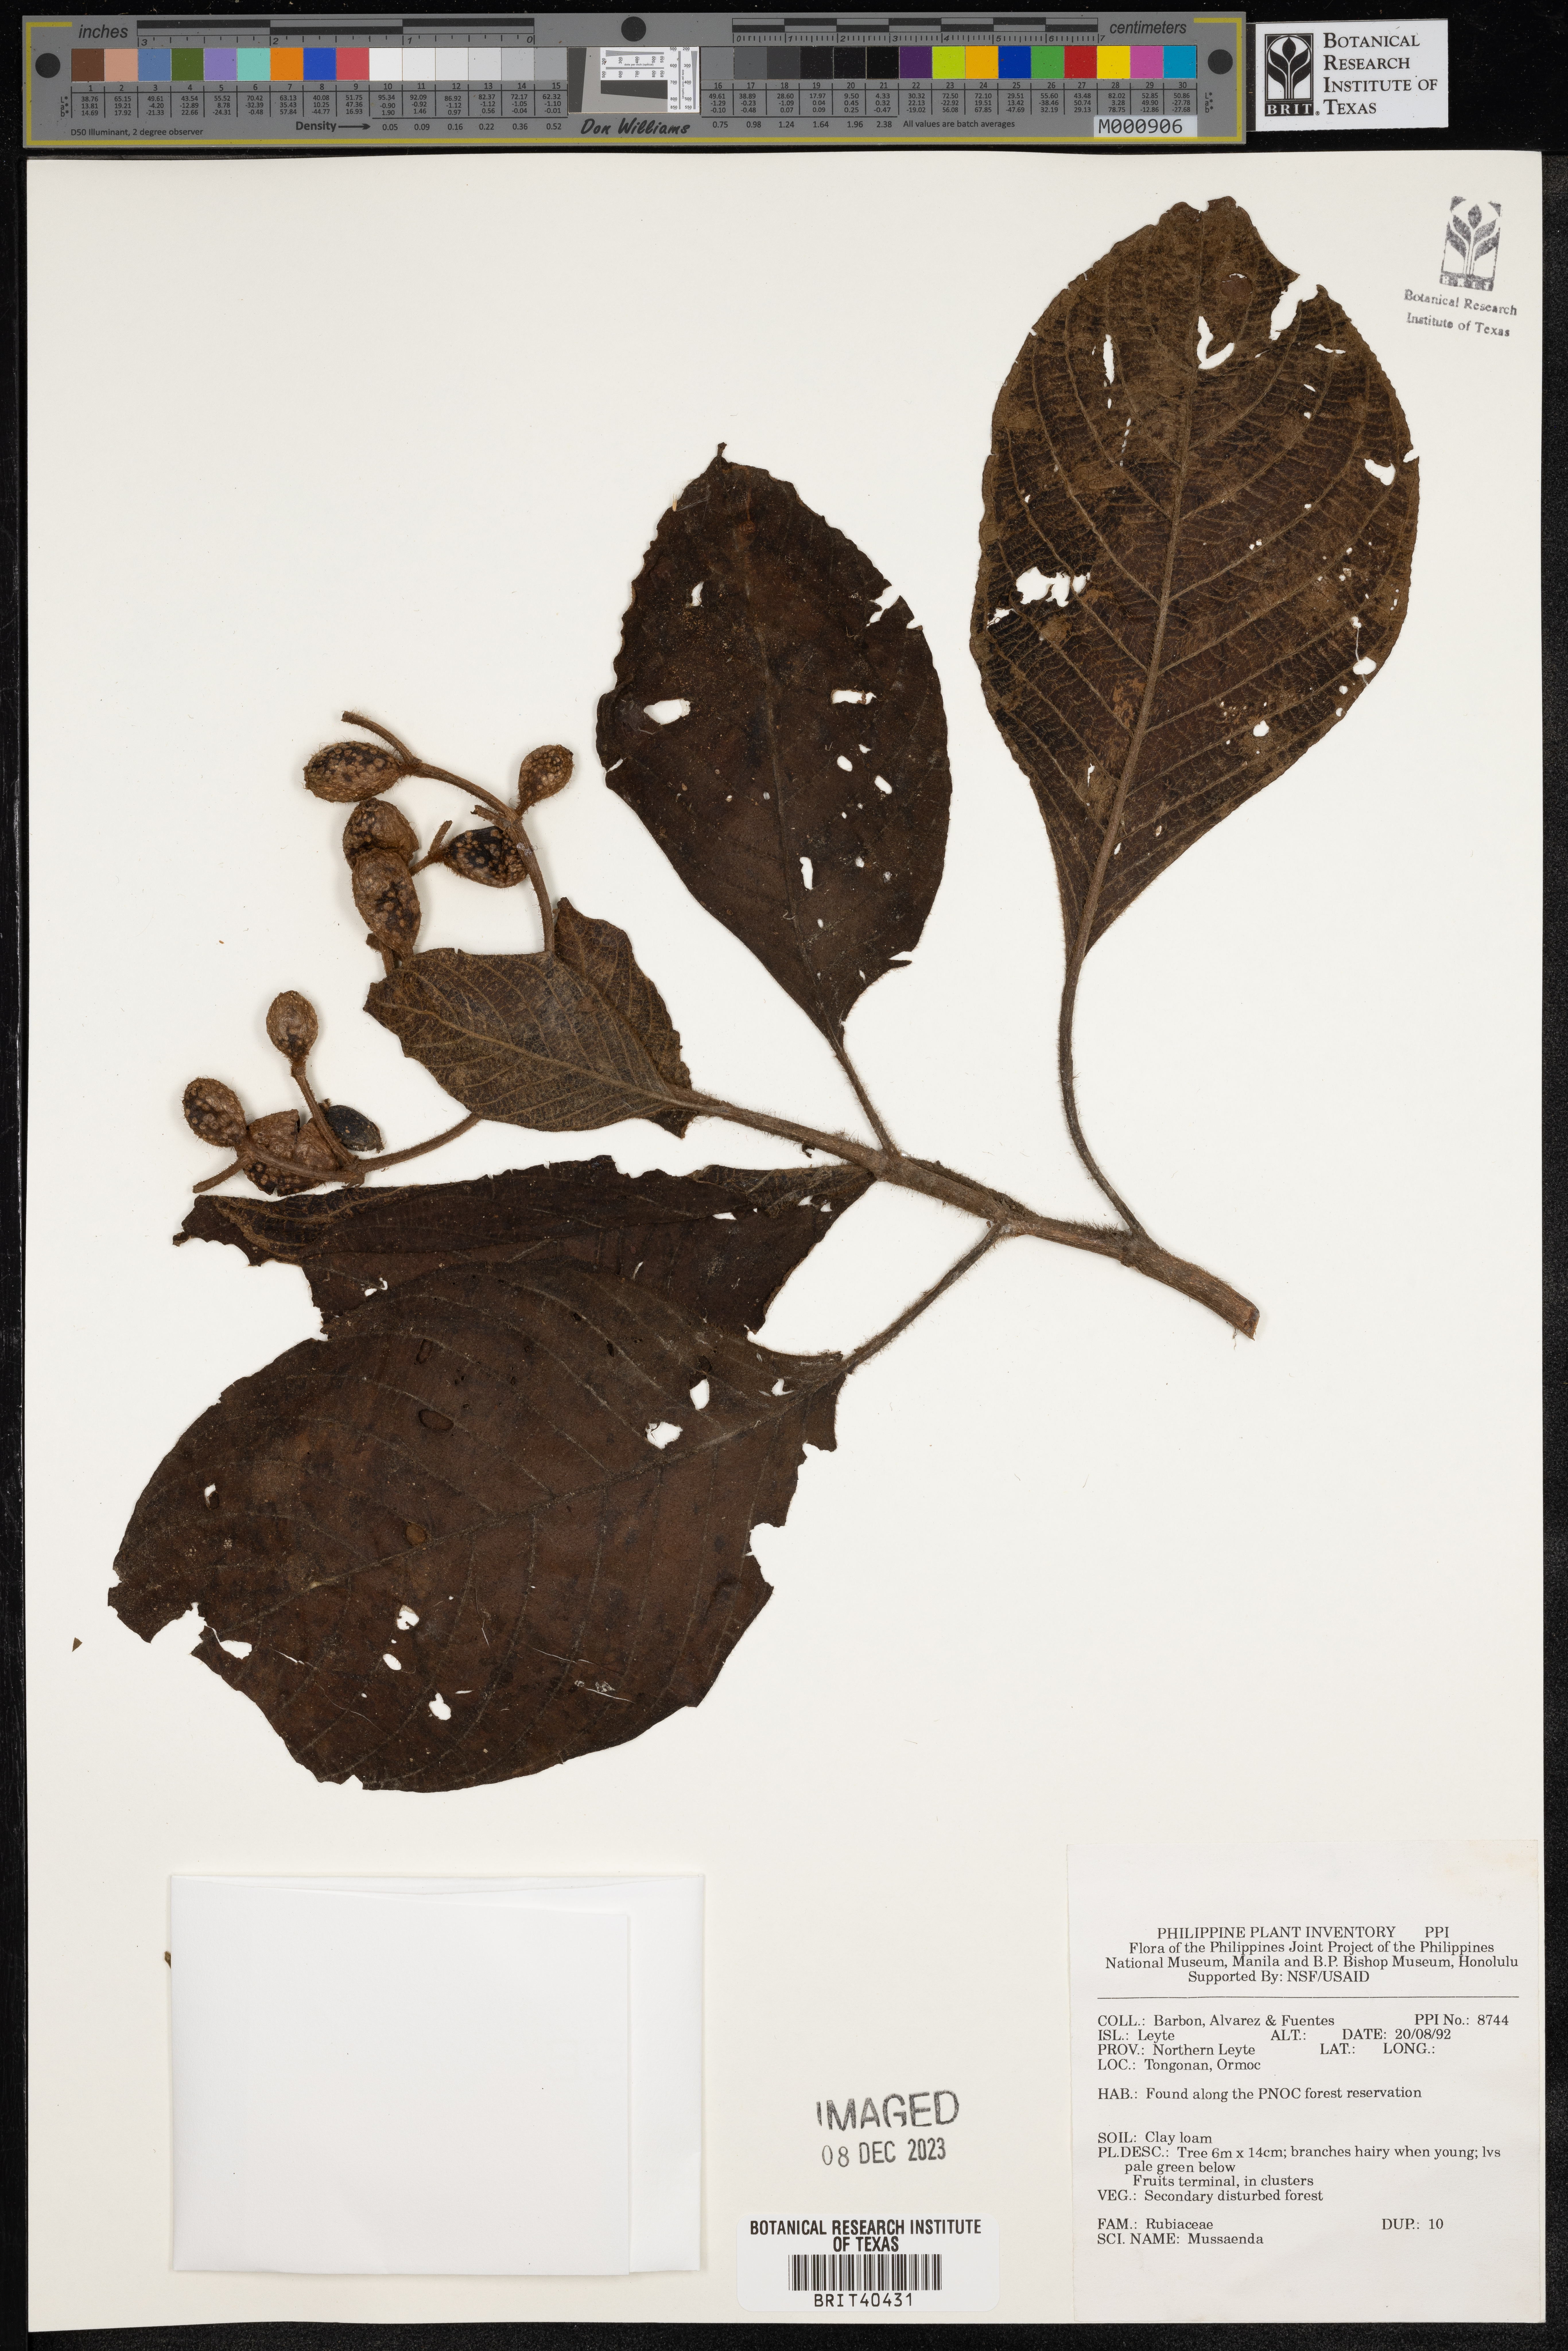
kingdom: Plantae
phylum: Tracheophyta
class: Magnoliopsida
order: Gentianales
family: Rubiaceae
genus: Mussaenda
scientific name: Mussaenda
